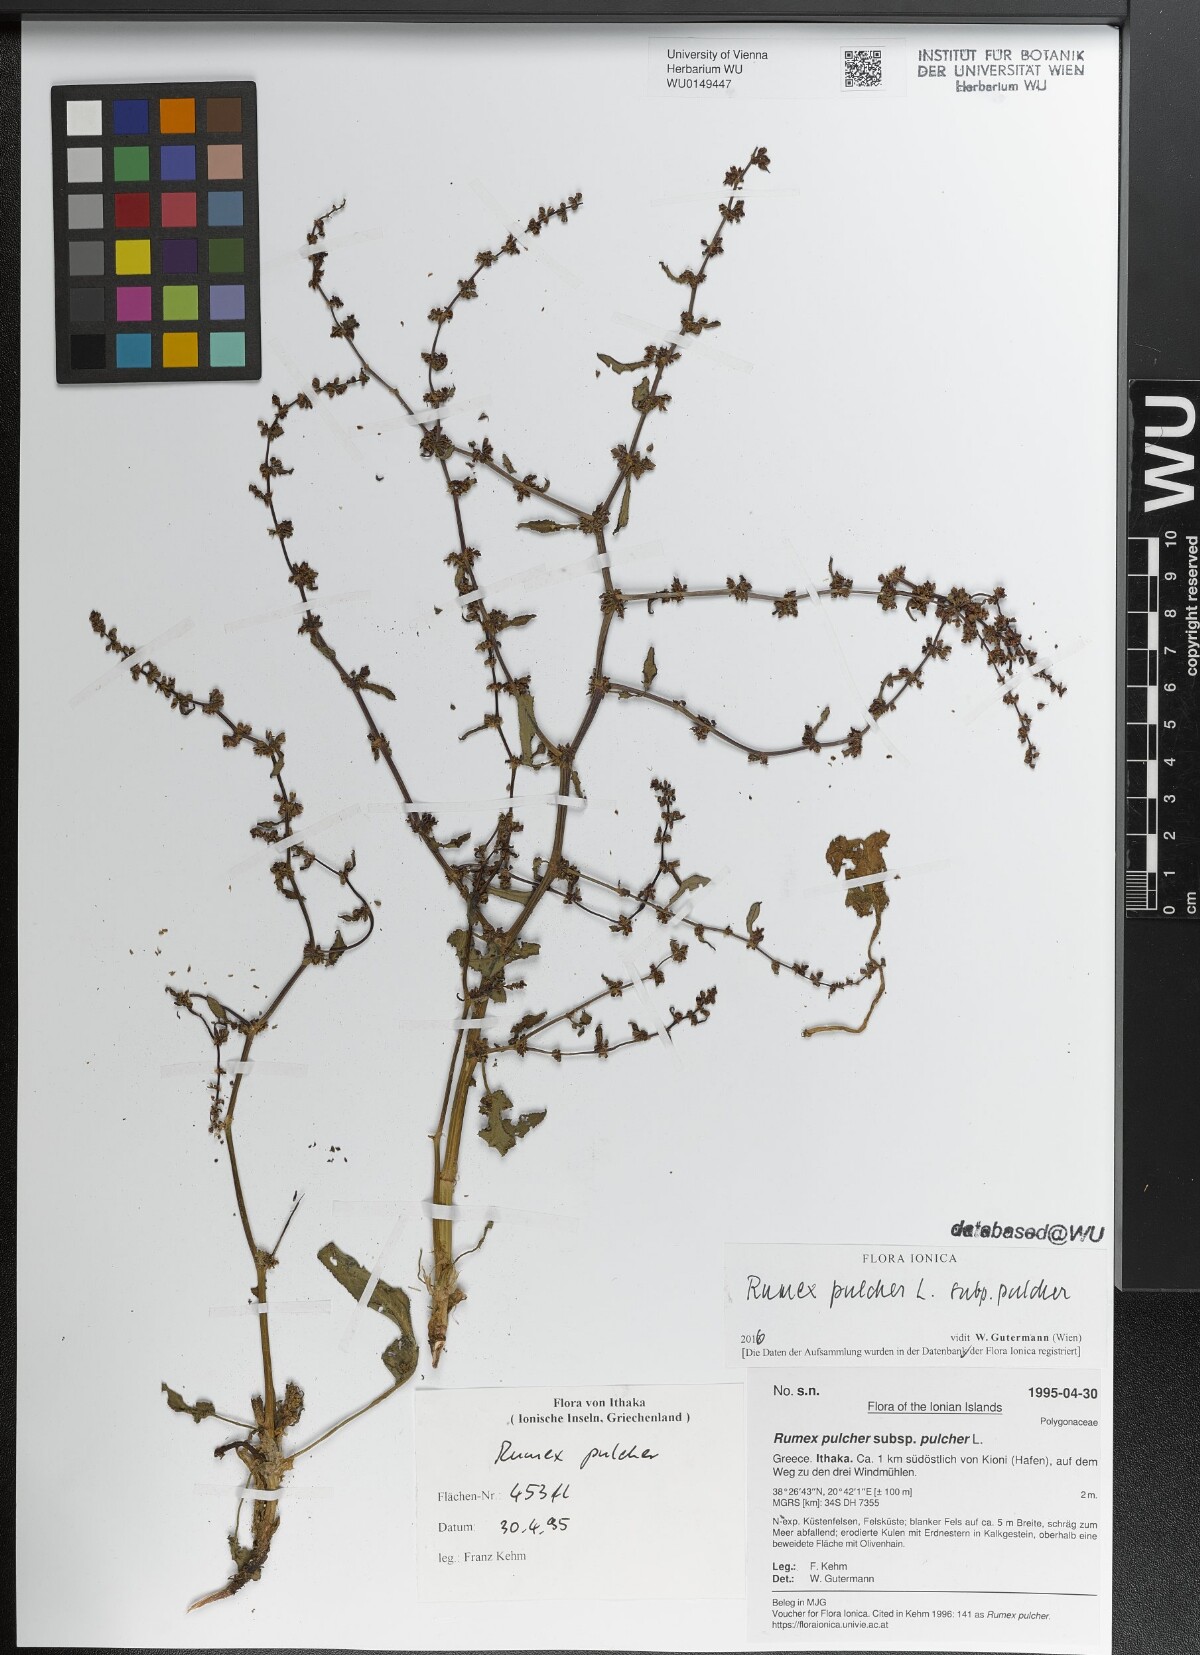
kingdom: Plantae
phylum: Tracheophyta
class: Magnoliopsida
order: Caryophyllales
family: Polygonaceae
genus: Rumex
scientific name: Rumex pulcher
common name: Fiddle dock
